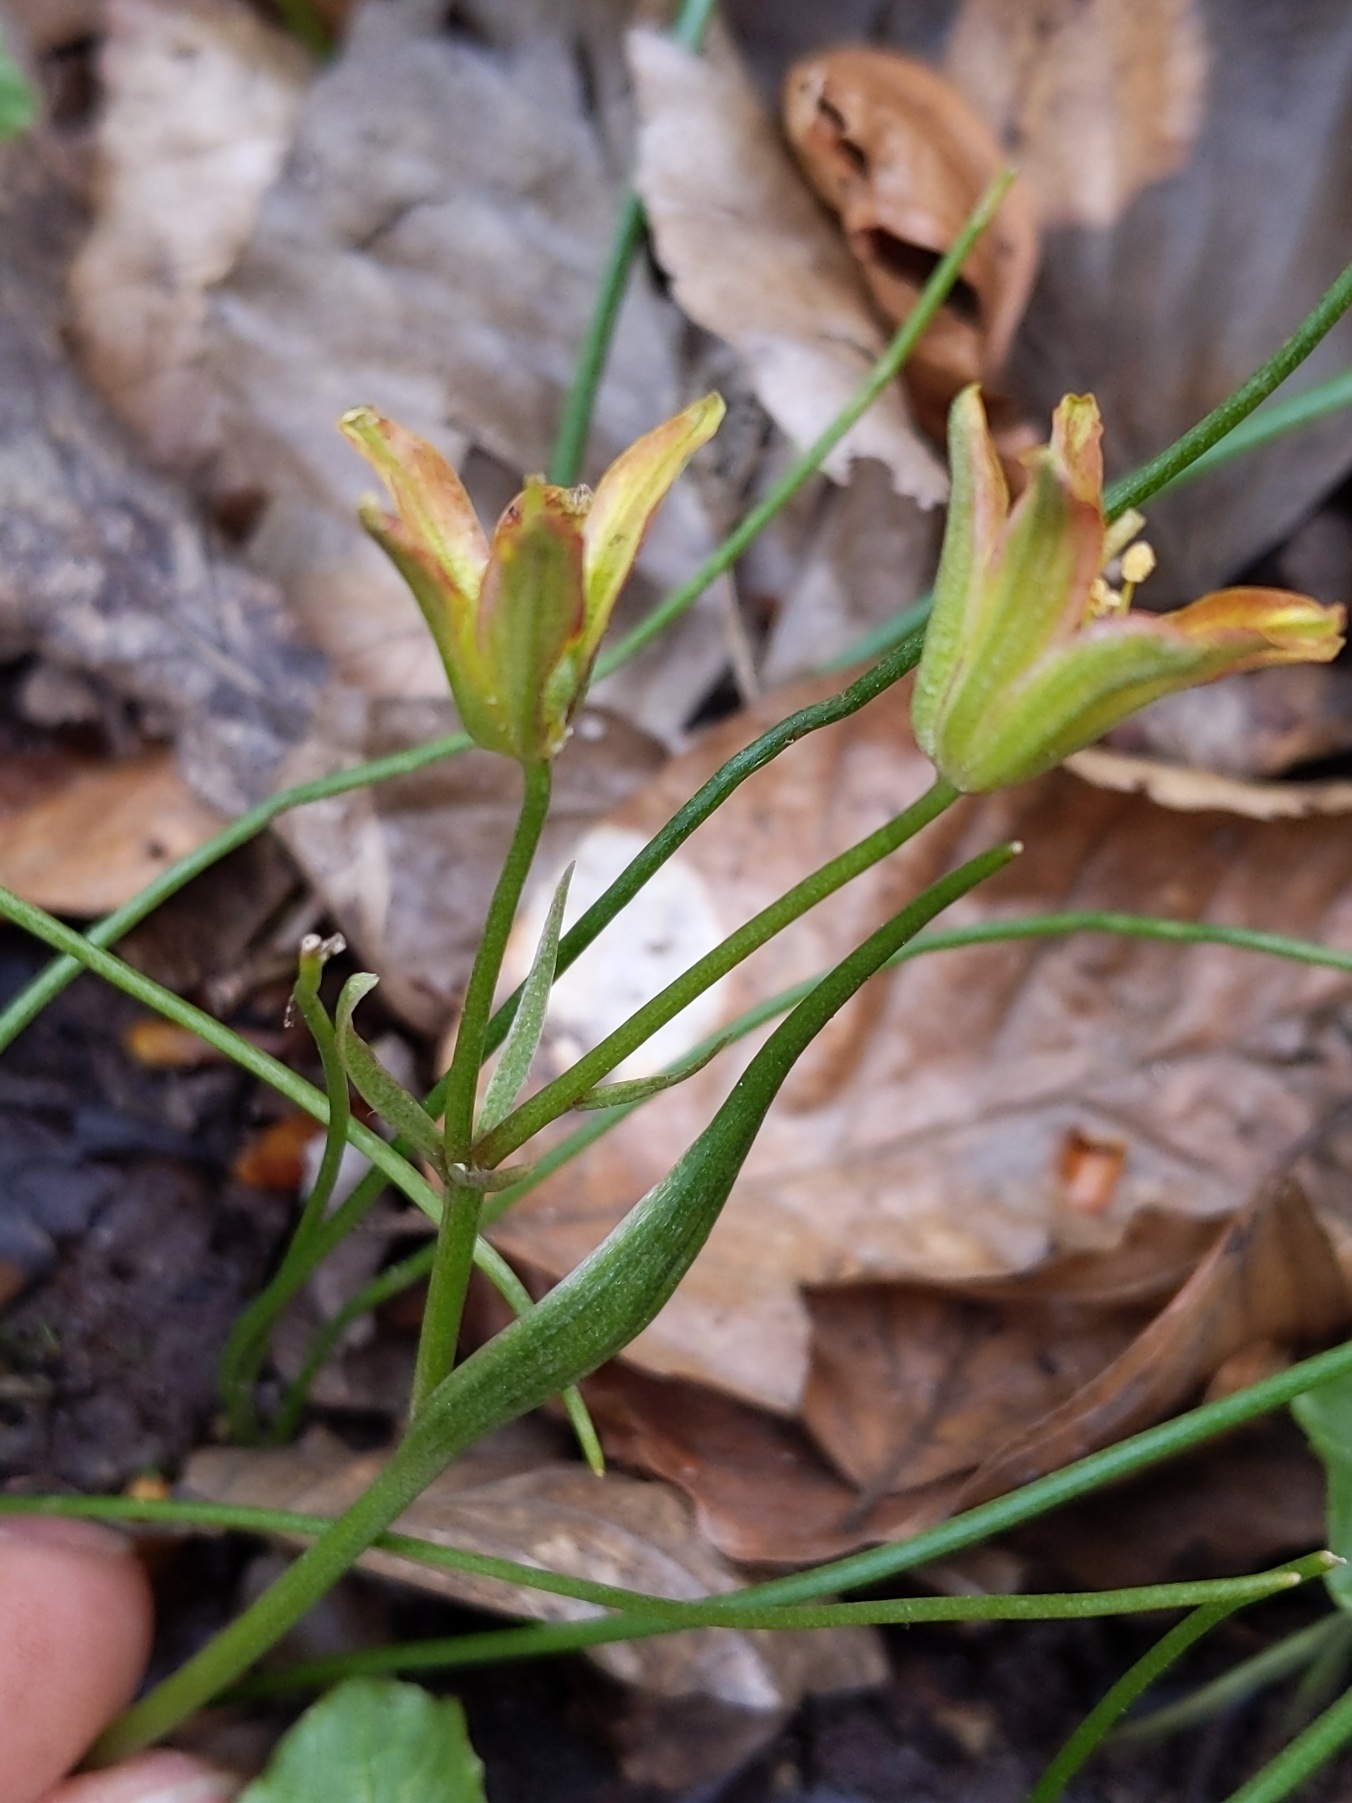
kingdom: Plantae
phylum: Tracheophyta
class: Liliopsida
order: Liliales
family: Liliaceae
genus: Gagea
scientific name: Gagea spathacea
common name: Hylster-guldstjerne
